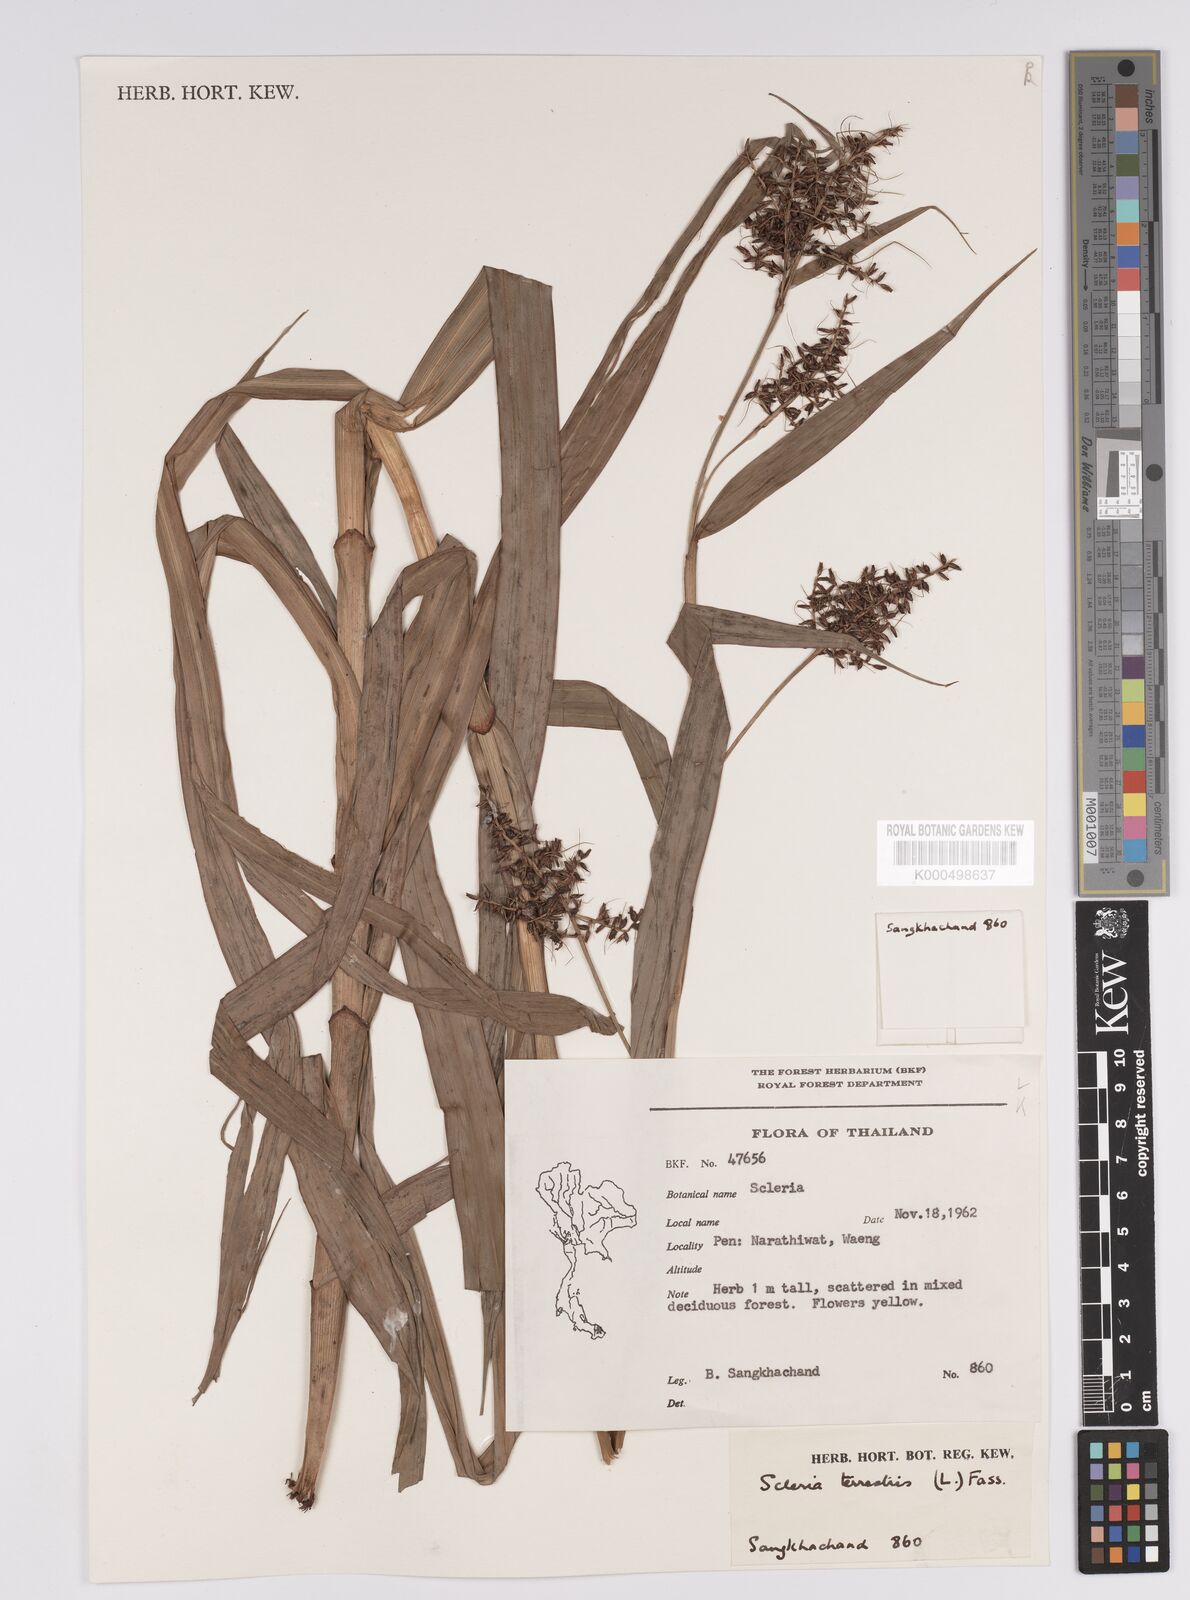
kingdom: Plantae
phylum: Tracheophyta
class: Liliopsida
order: Poales
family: Cyperaceae
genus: Scleria
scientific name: Scleria terrestris
